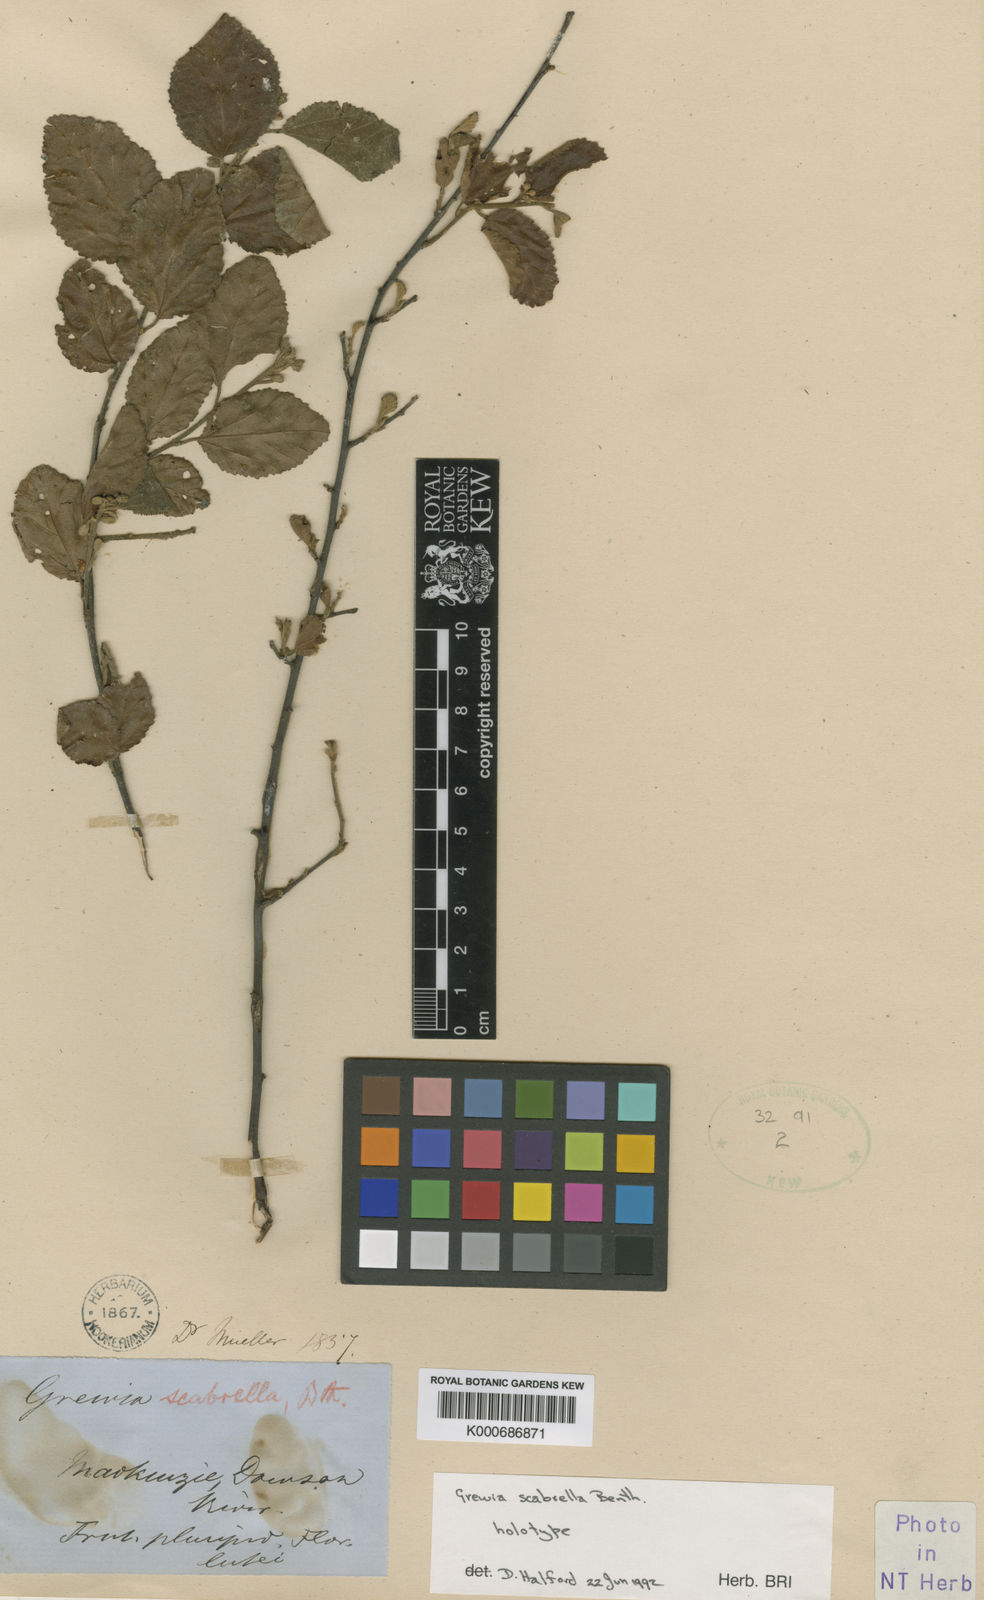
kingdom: Plantae
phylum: Tracheophyta
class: Magnoliopsida
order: Malvales
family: Malvaceae
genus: Grewia
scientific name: Grewia scabrella
